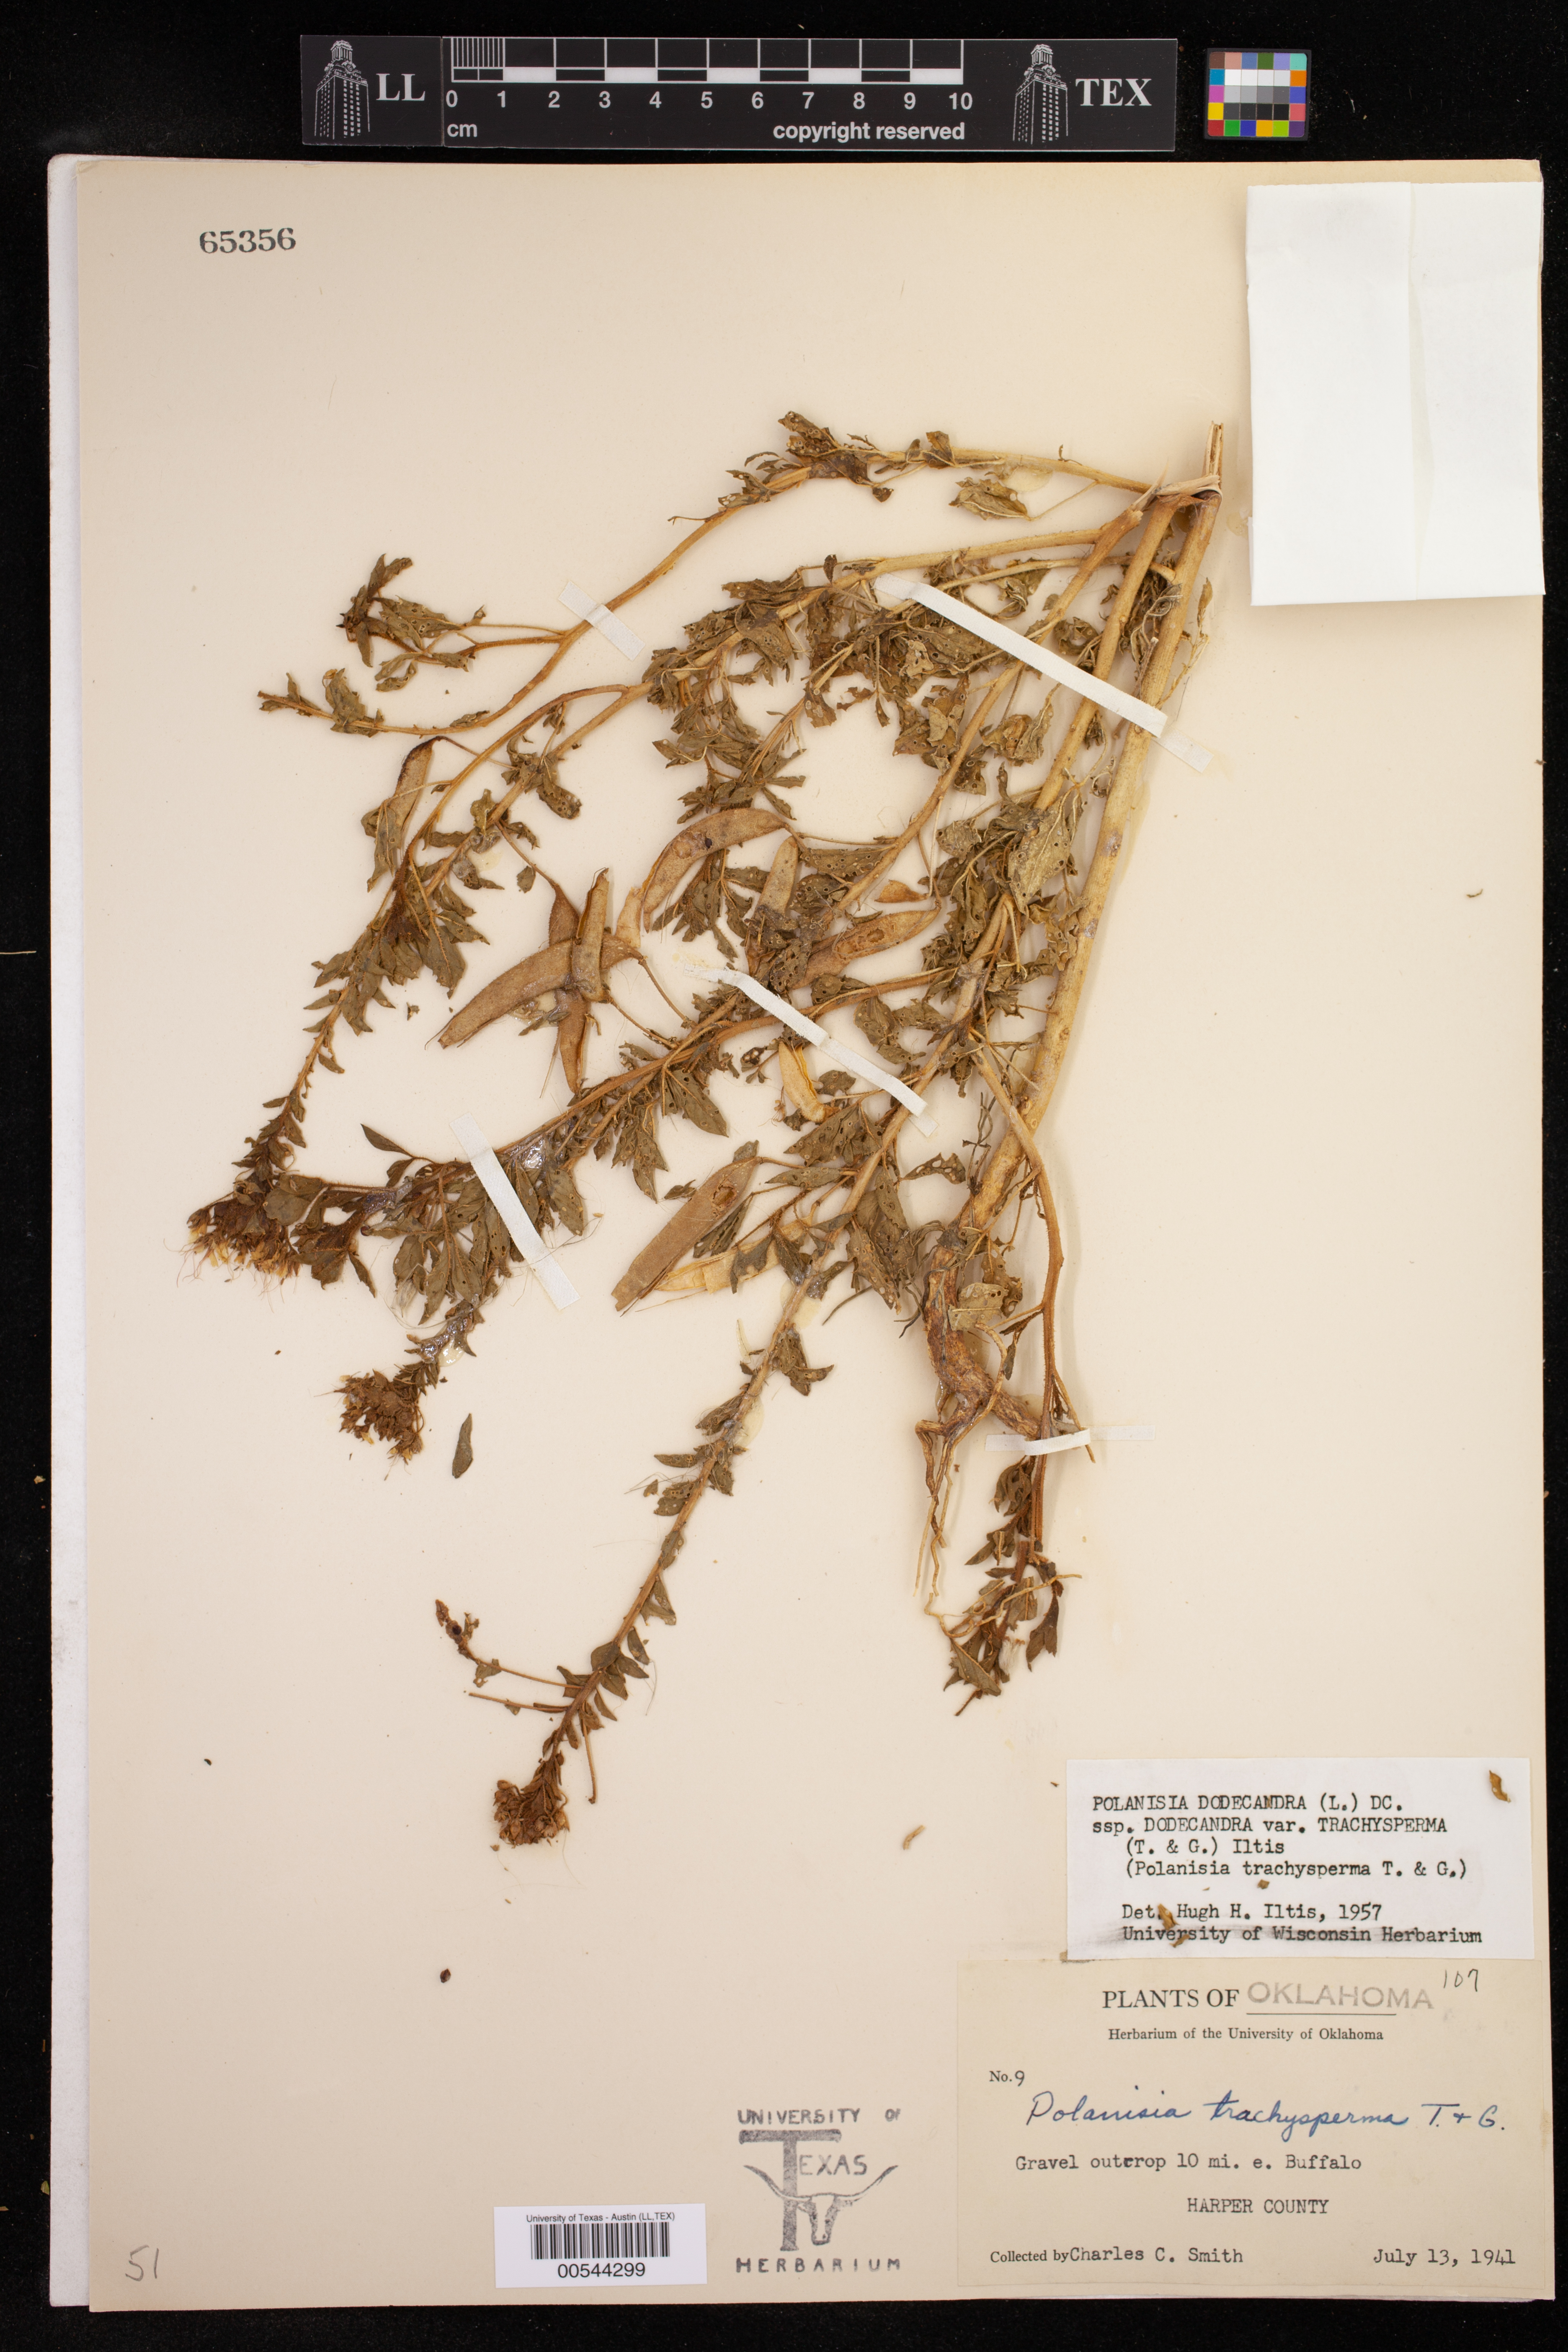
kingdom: Plantae
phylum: Tracheophyta
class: Magnoliopsida
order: Brassicales
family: Cleomaceae
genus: Polanisia
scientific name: Polanisia trachysperma
